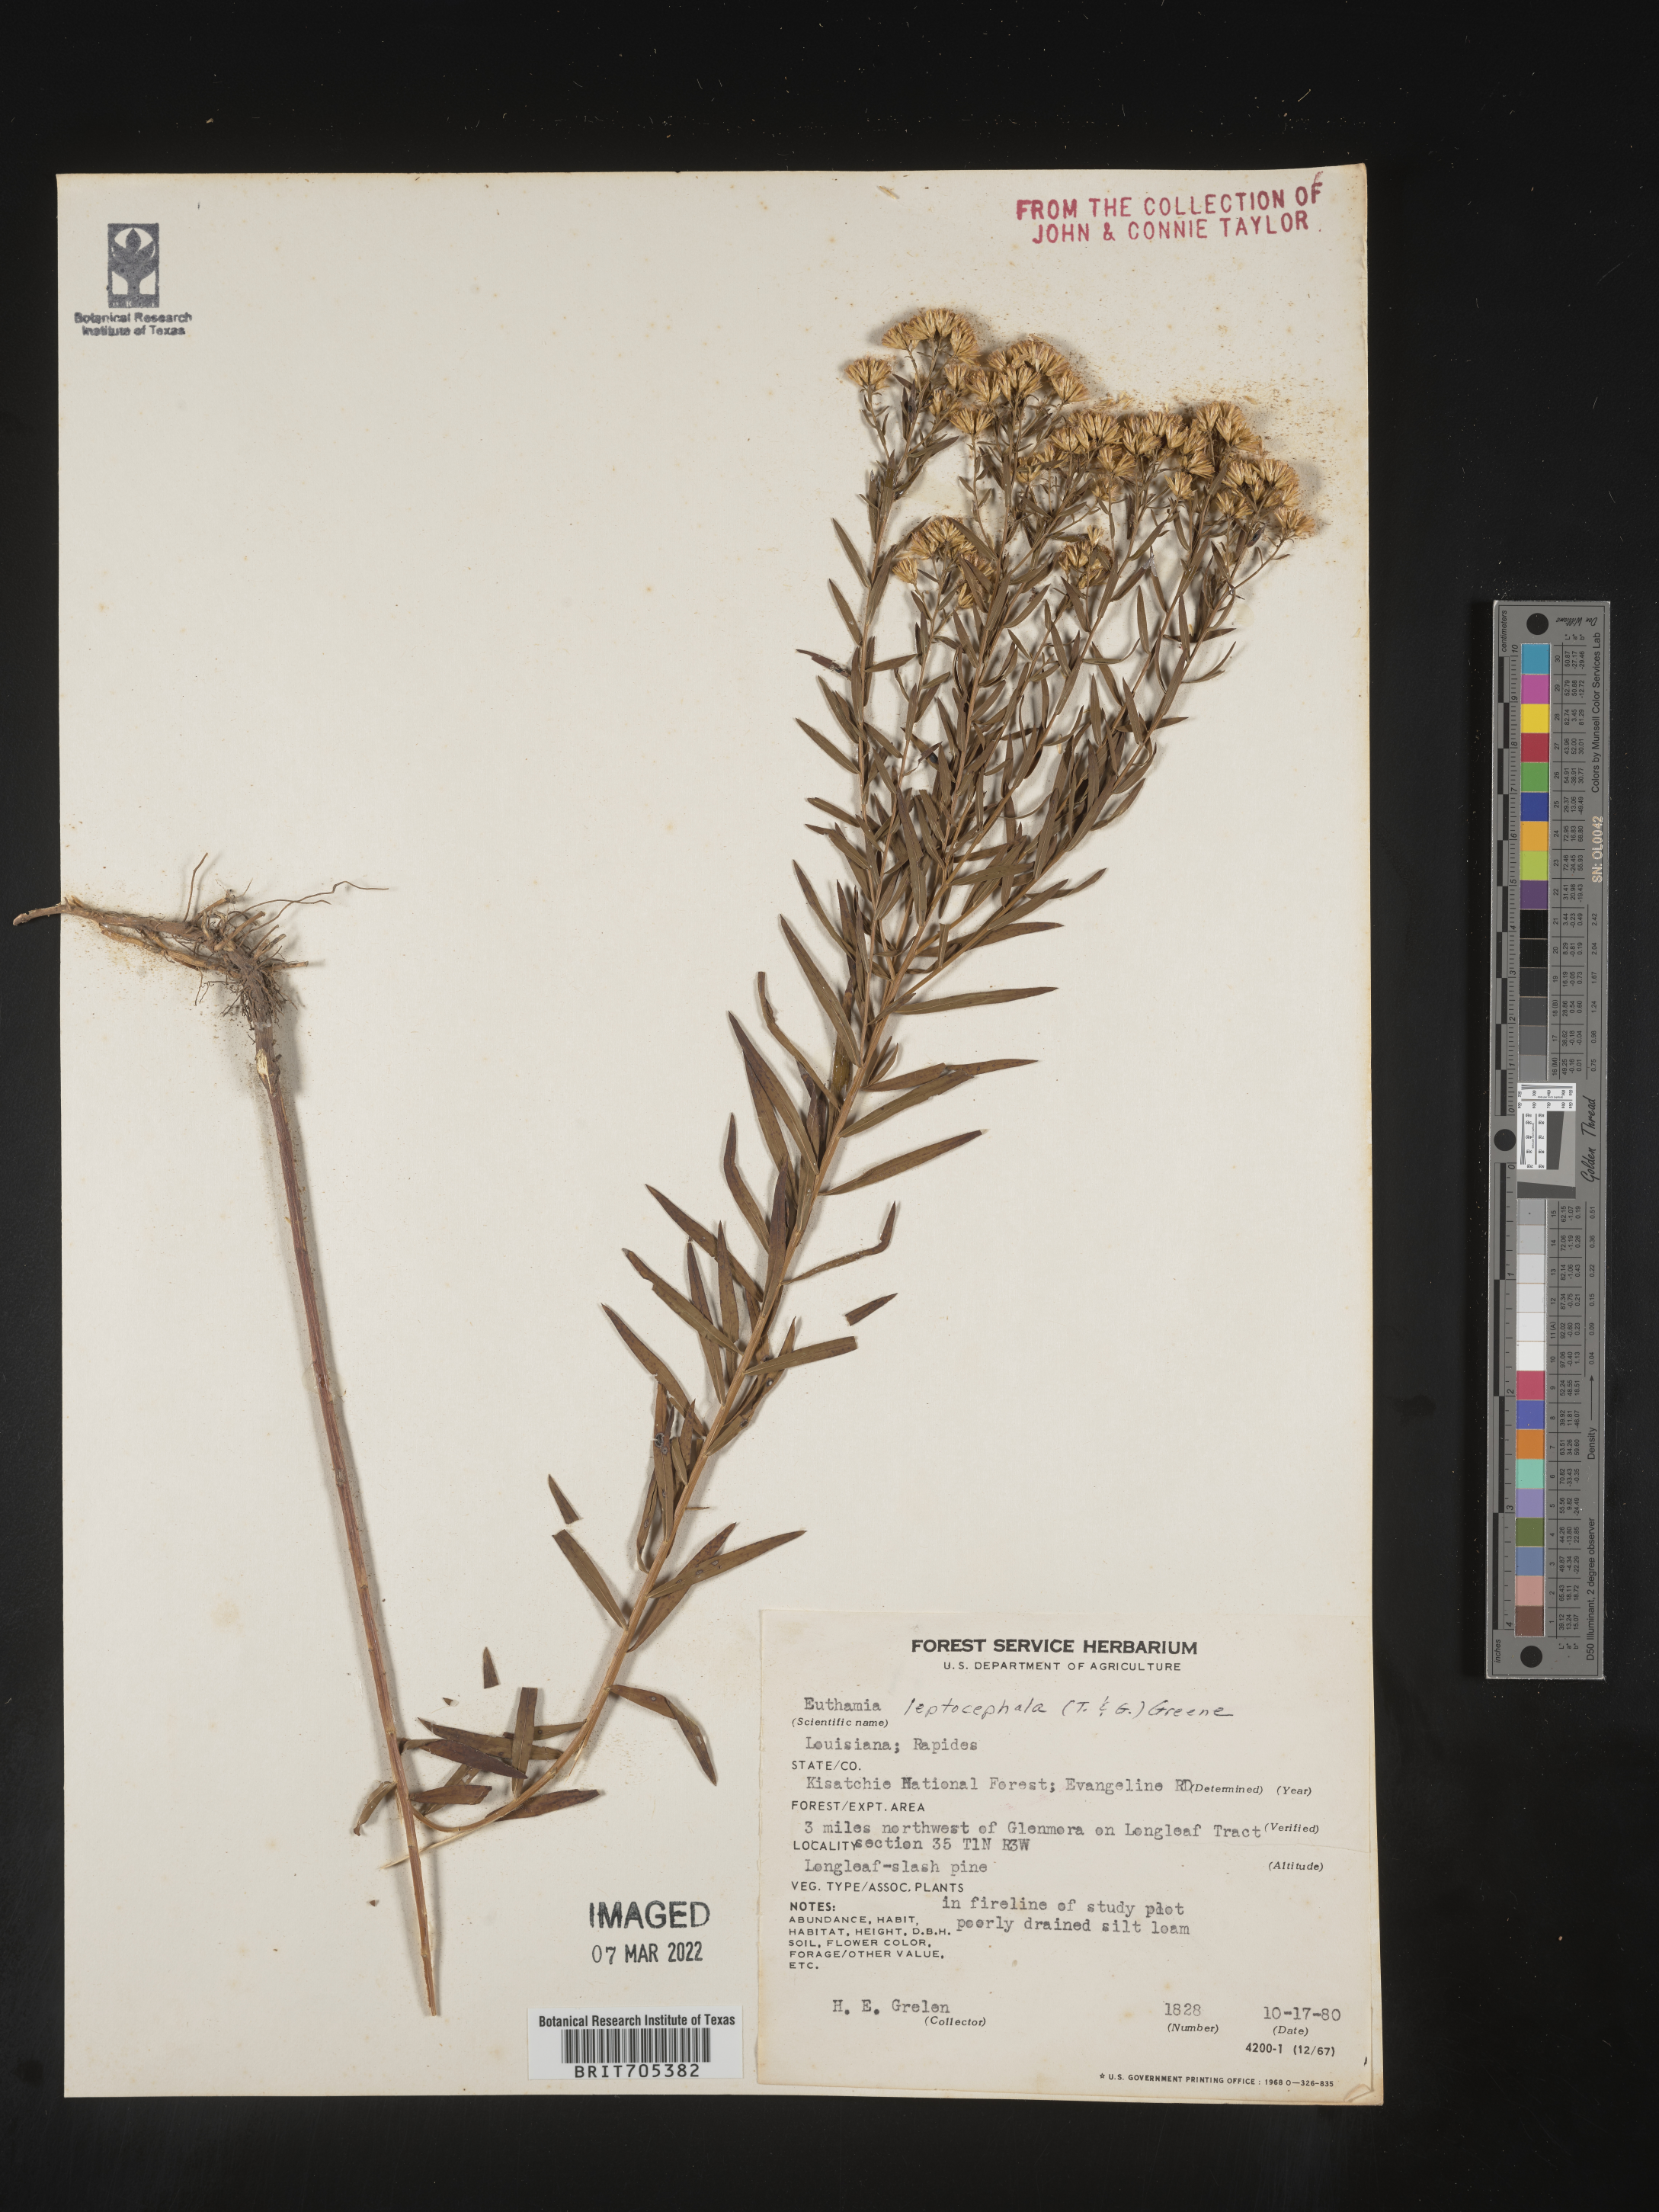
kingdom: Plantae
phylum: Tracheophyta
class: Magnoliopsida
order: Asterales
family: Asteraceae
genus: Euthamia
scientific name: Euthamia leptocephala
